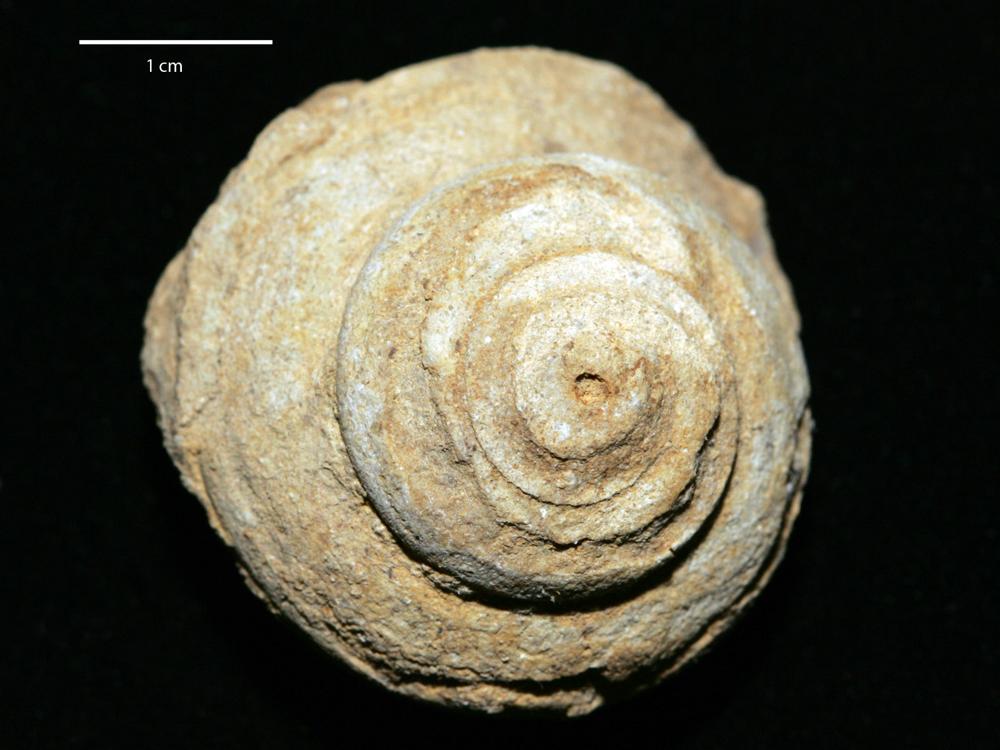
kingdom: Animalia
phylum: Mollusca
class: Gastropoda
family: Lophospiridae
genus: Lophospira
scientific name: Lophospira Worthenia mickwitzi
